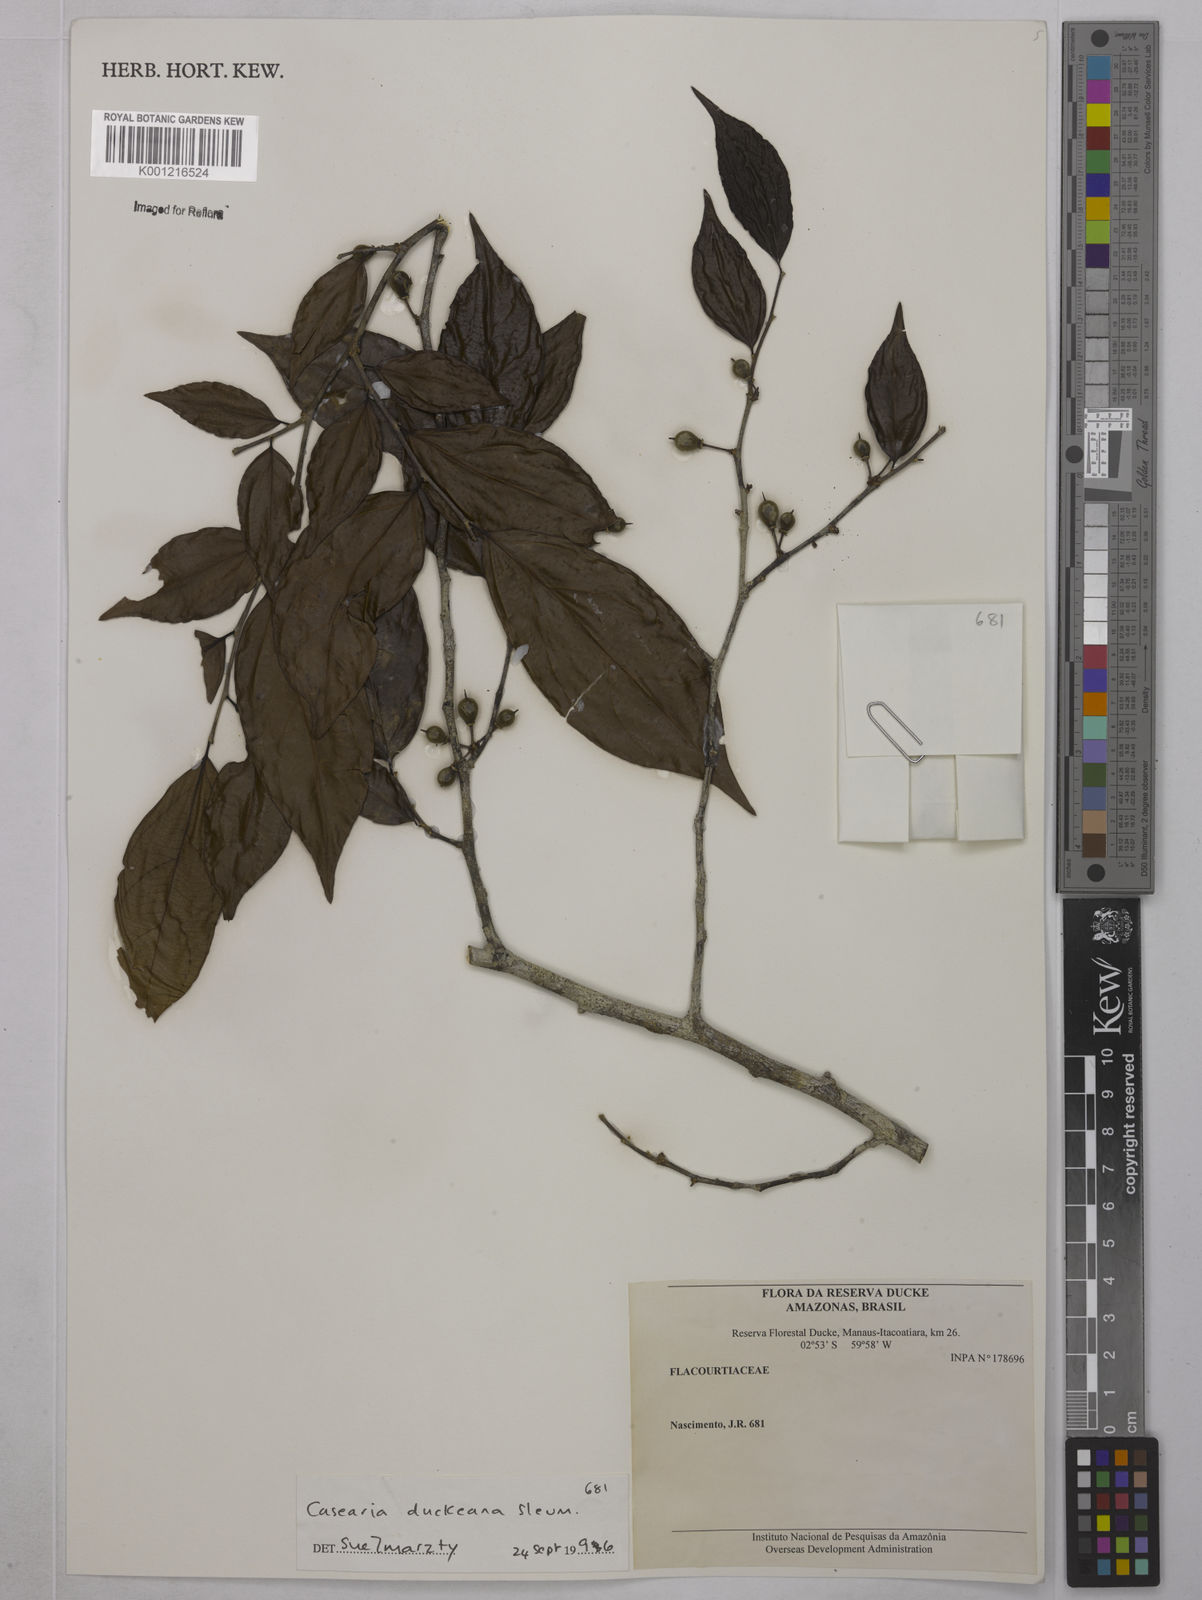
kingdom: Plantae
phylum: Tracheophyta
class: Magnoliopsida
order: Malpighiales
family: Salicaceae
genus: Casearia
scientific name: Casearia duckeana
